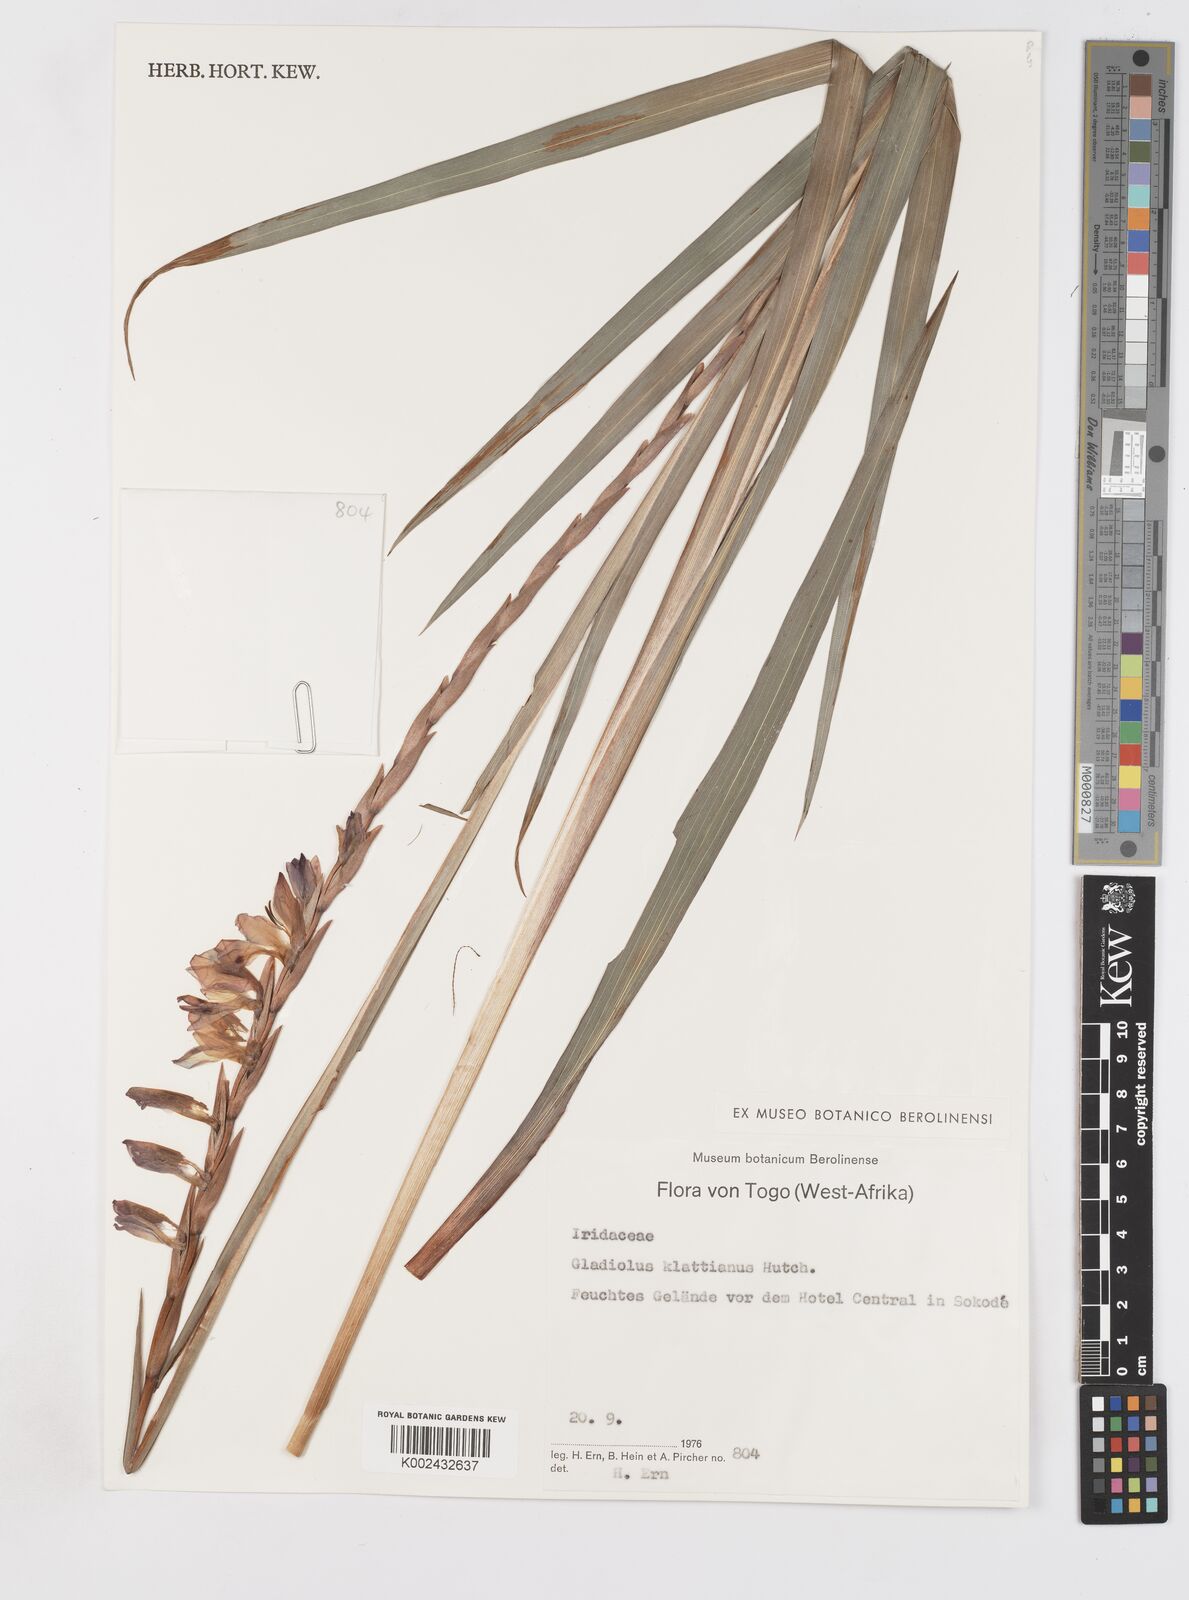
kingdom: Plantae
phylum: Tracheophyta
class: Liliopsida
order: Asparagales
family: Iridaceae
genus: Gladiolus
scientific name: Gladiolus gregarius
